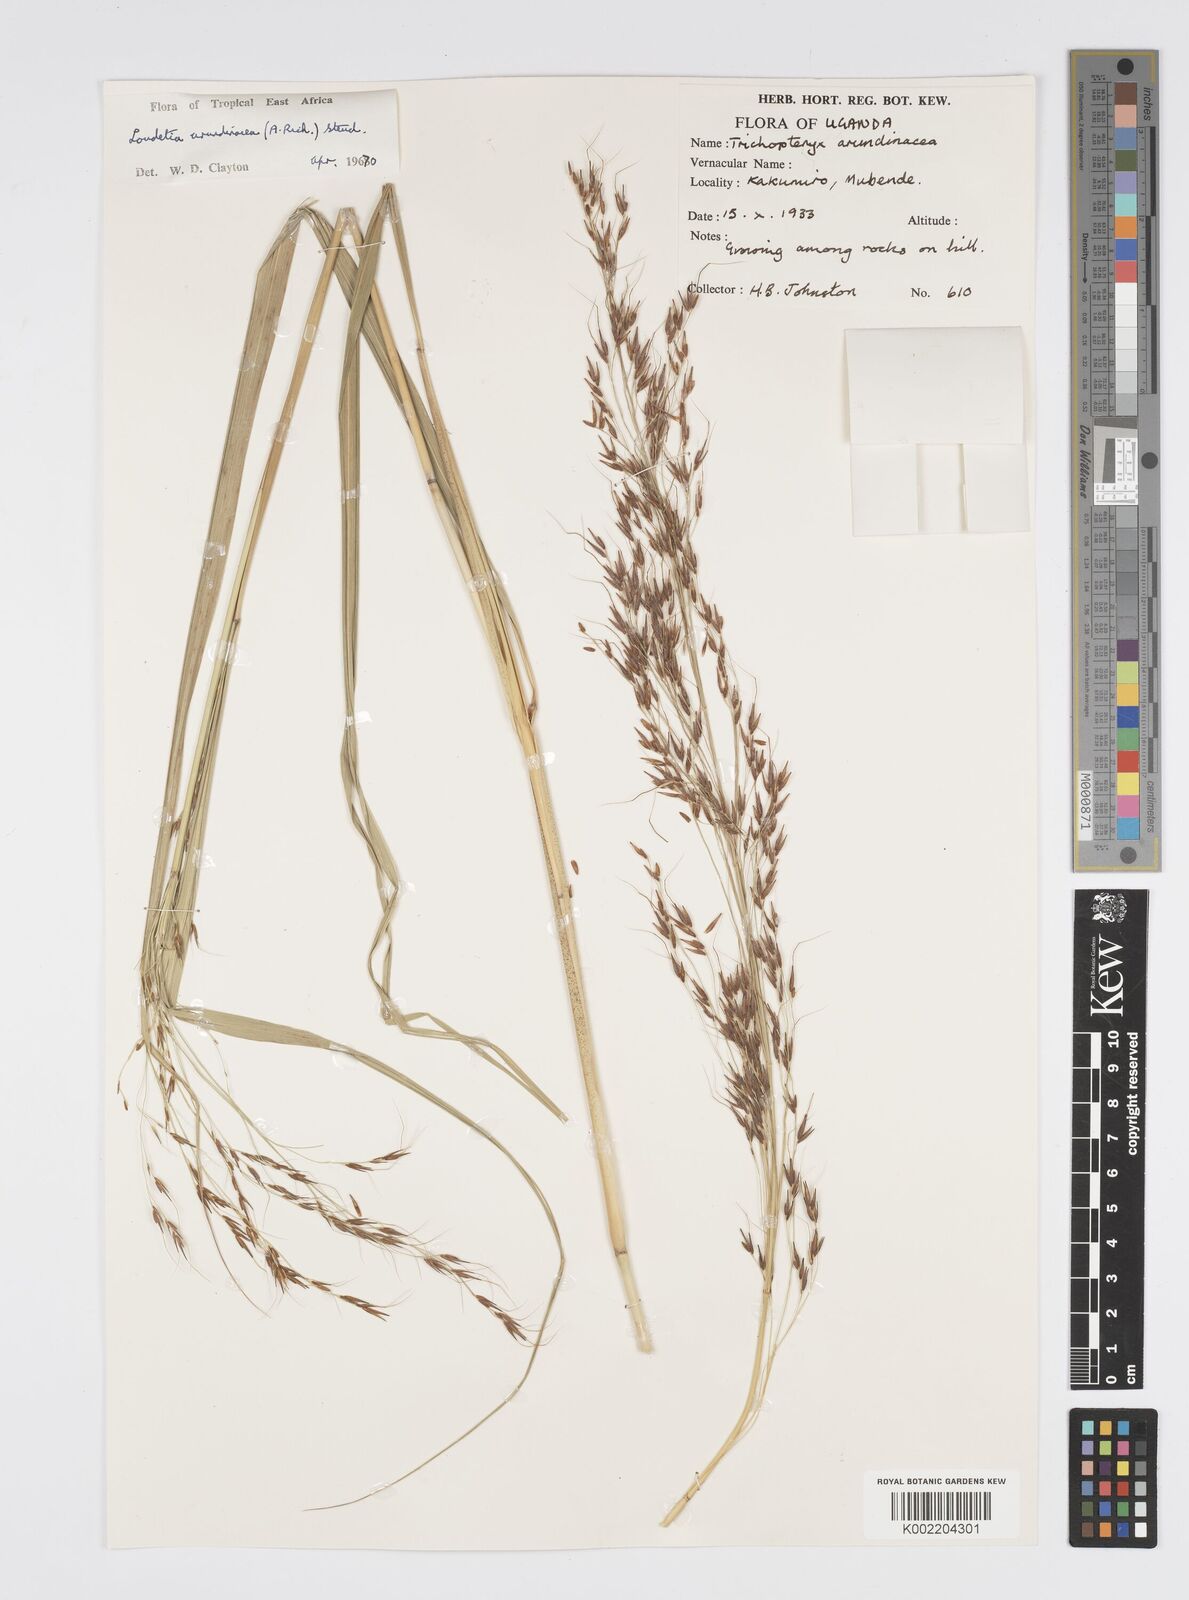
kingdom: Plantae
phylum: Tracheophyta
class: Liliopsida
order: Poales
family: Poaceae
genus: Loudetia
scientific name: Loudetia arundinacea
